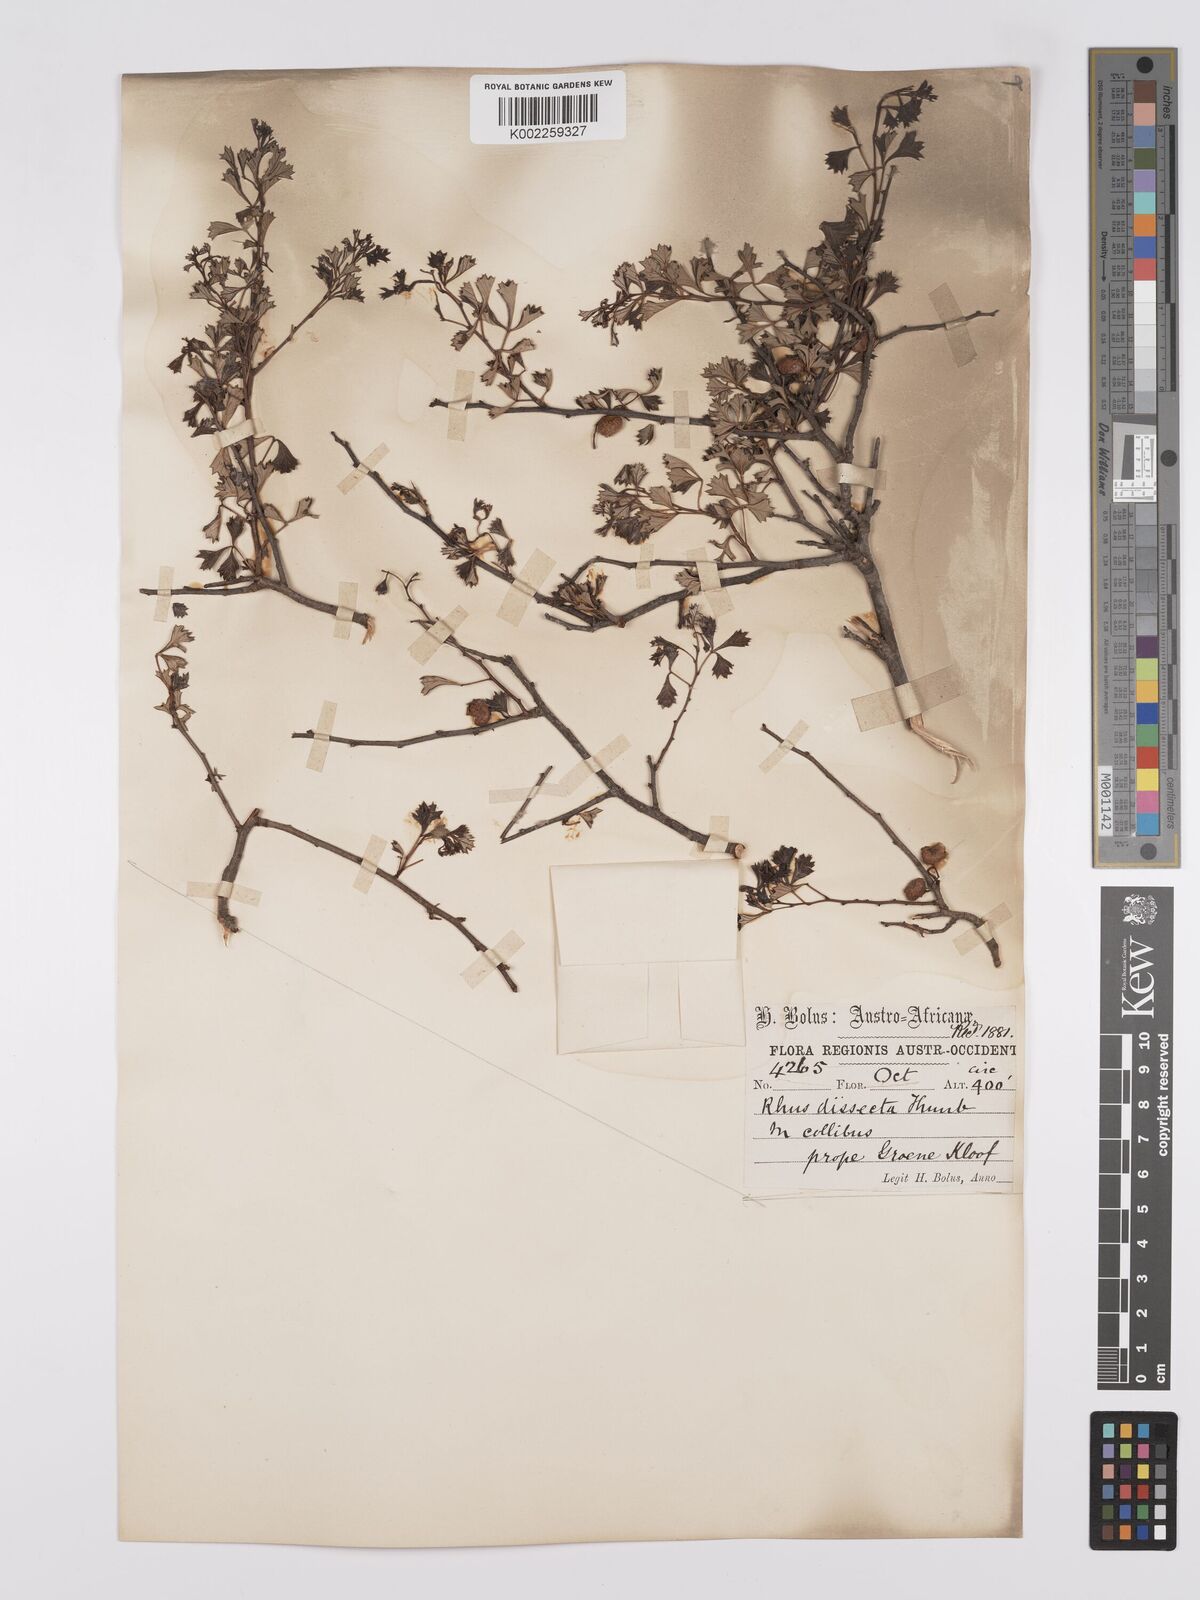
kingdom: Plantae
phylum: Tracheophyta
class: Magnoliopsida
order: Sapindales
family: Anacardiaceae
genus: Searsia
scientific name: Searsia dissecta
